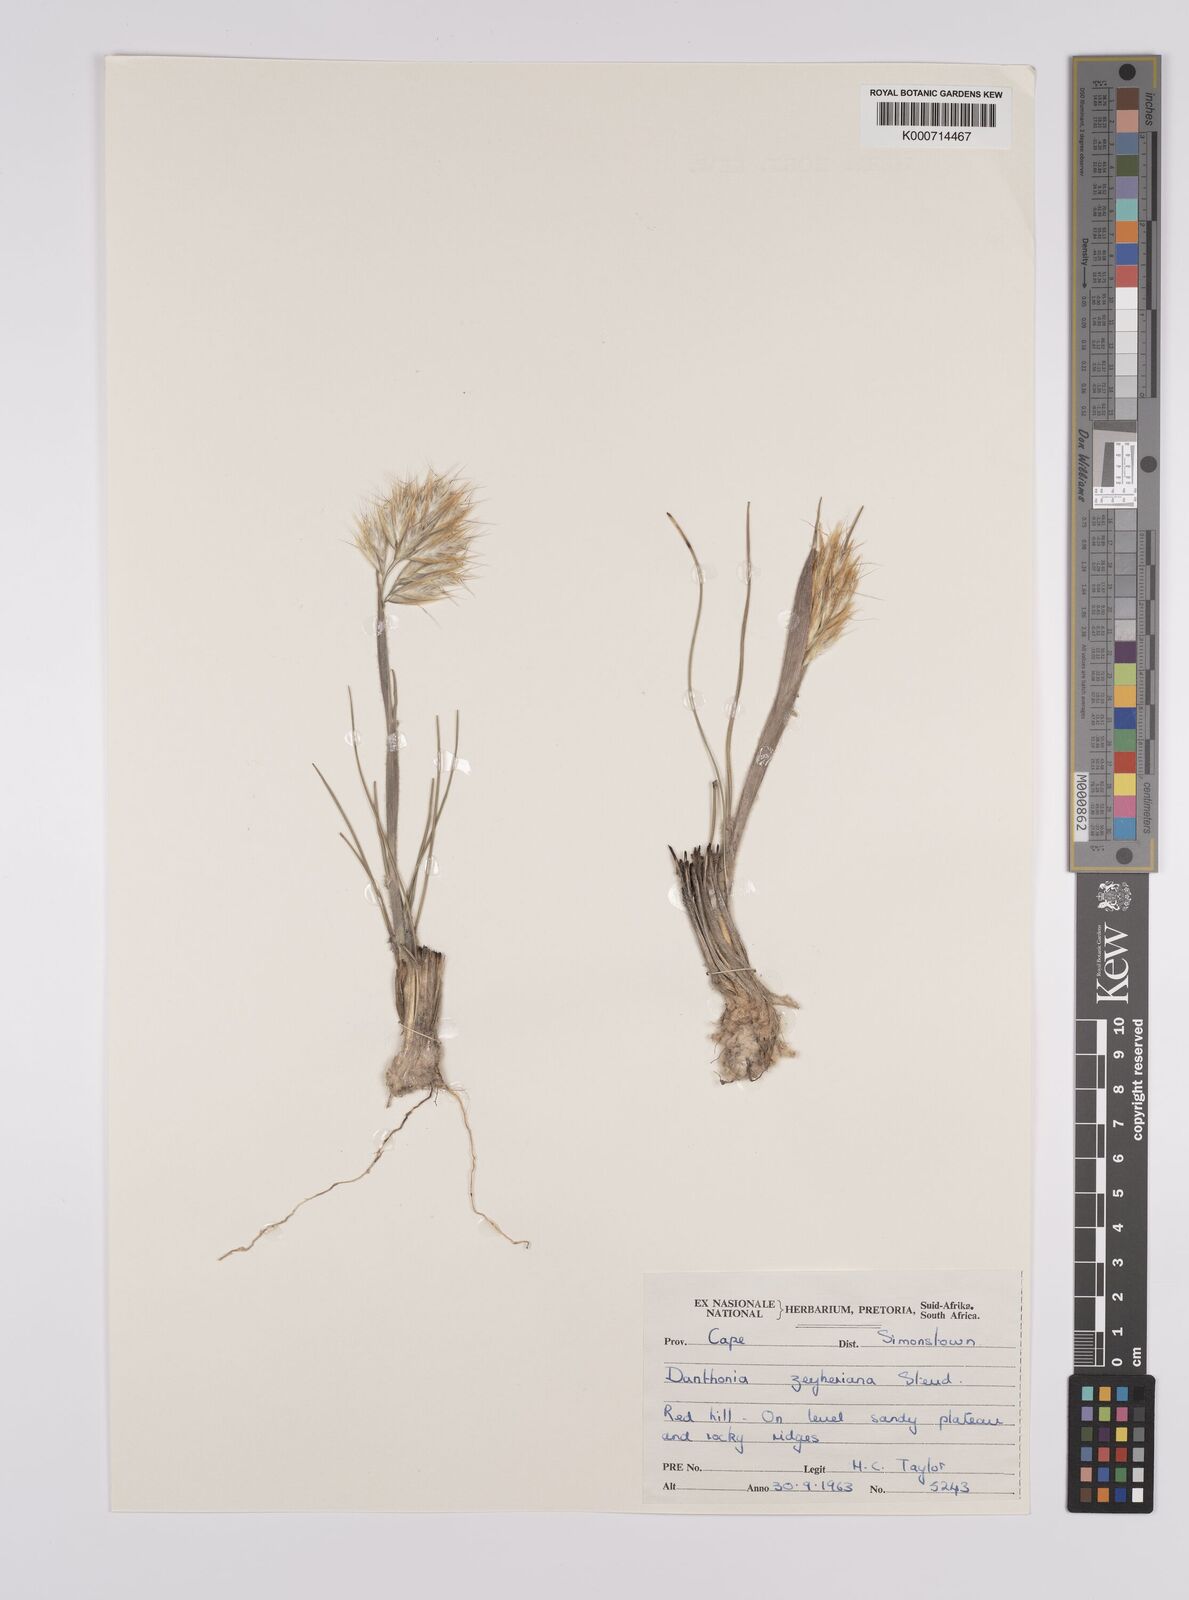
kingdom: Plantae
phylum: Tracheophyta
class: Liliopsida
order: Poales
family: Poaceae
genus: Rytidosperma
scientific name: Rytidosperma
